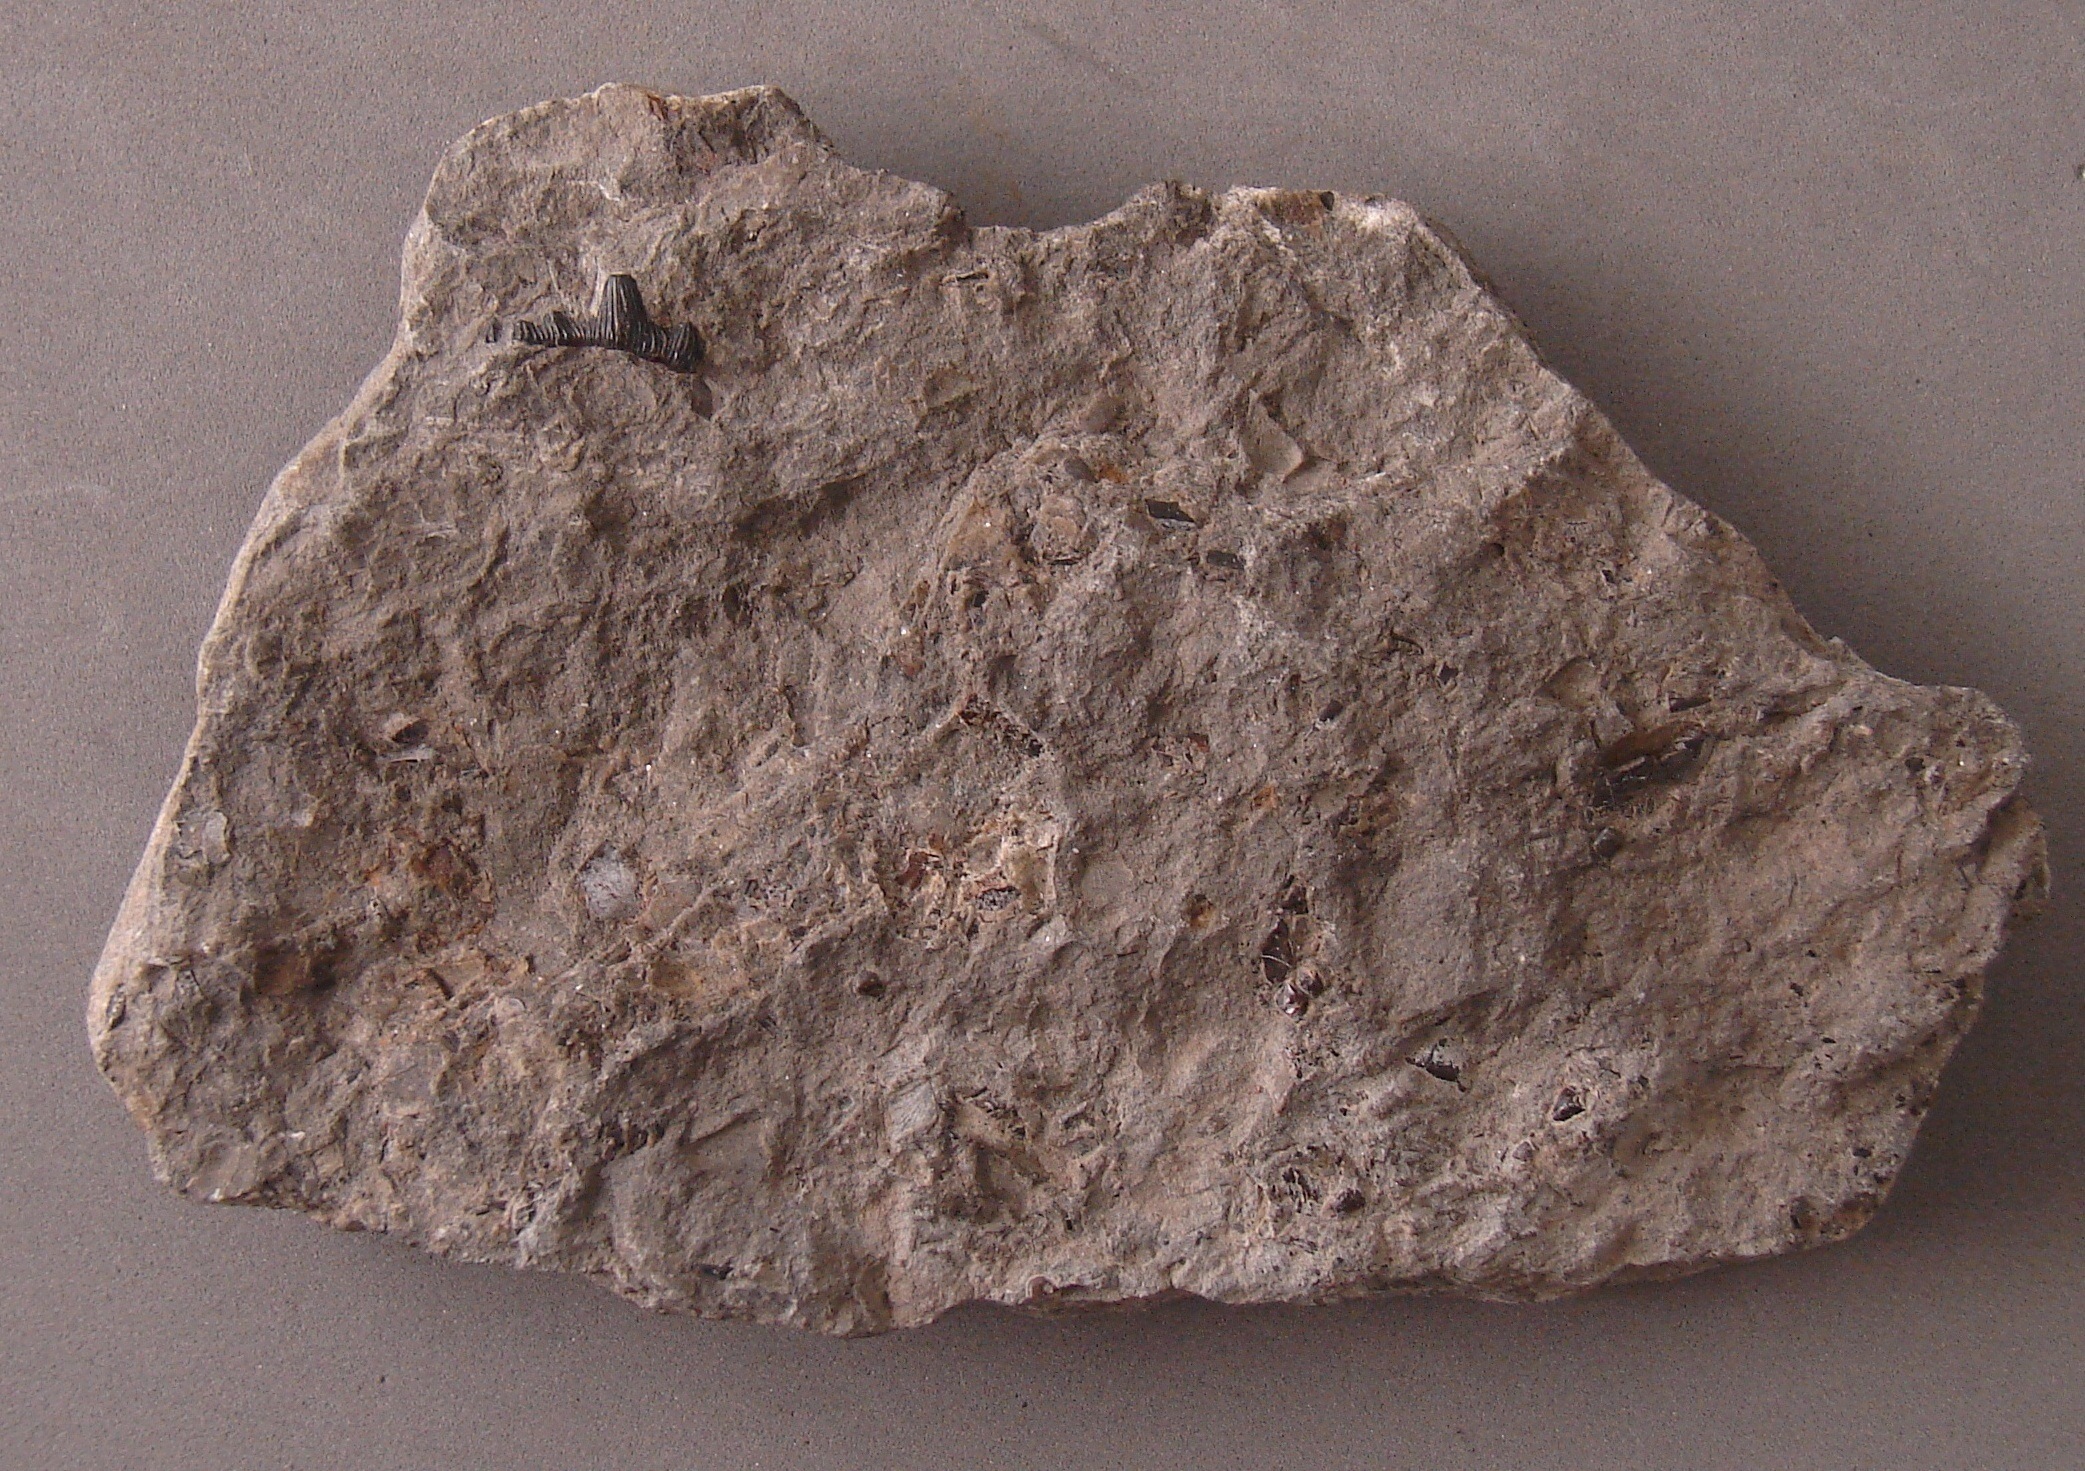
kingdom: Animalia
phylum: Chordata
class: Elasmobranchii
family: Hybodontidae
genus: Hybodus
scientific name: Hybodus plicatilis
